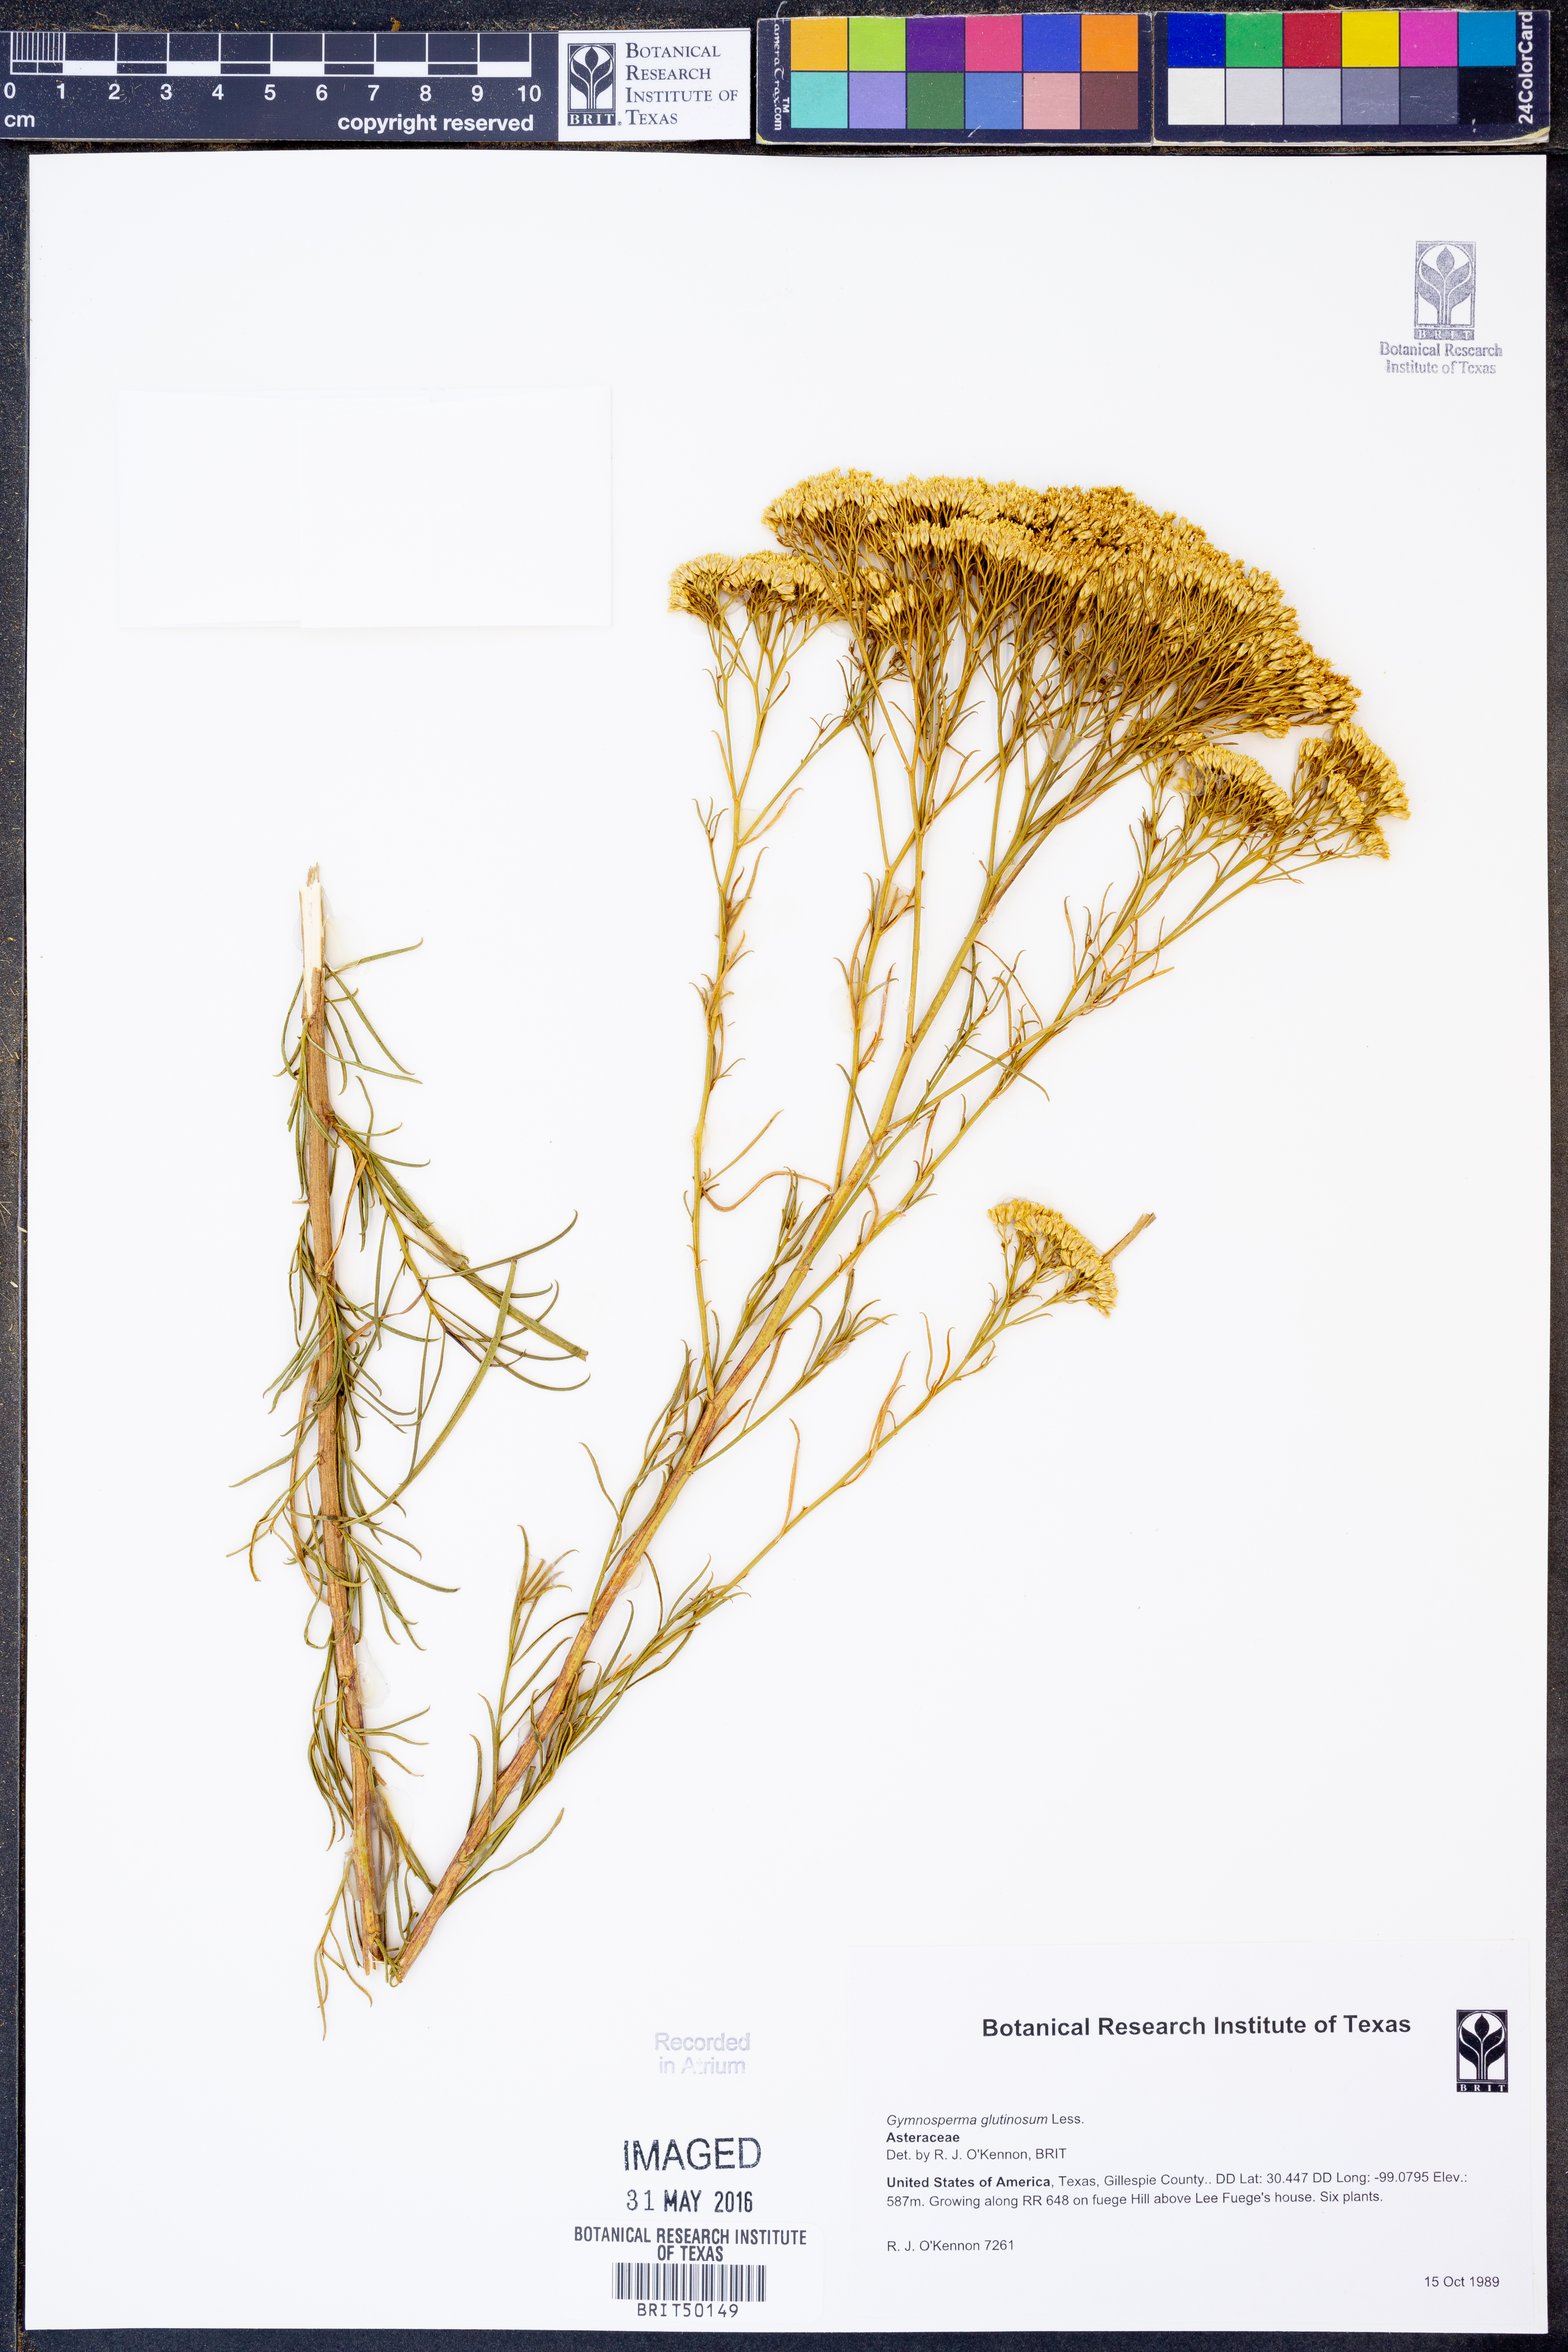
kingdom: Plantae
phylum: Tracheophyta
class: Magnoliopsida
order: Asterales
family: Asteraceae
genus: Gymnosperma
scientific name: Gymnosperma glutinosum
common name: Gumhead
